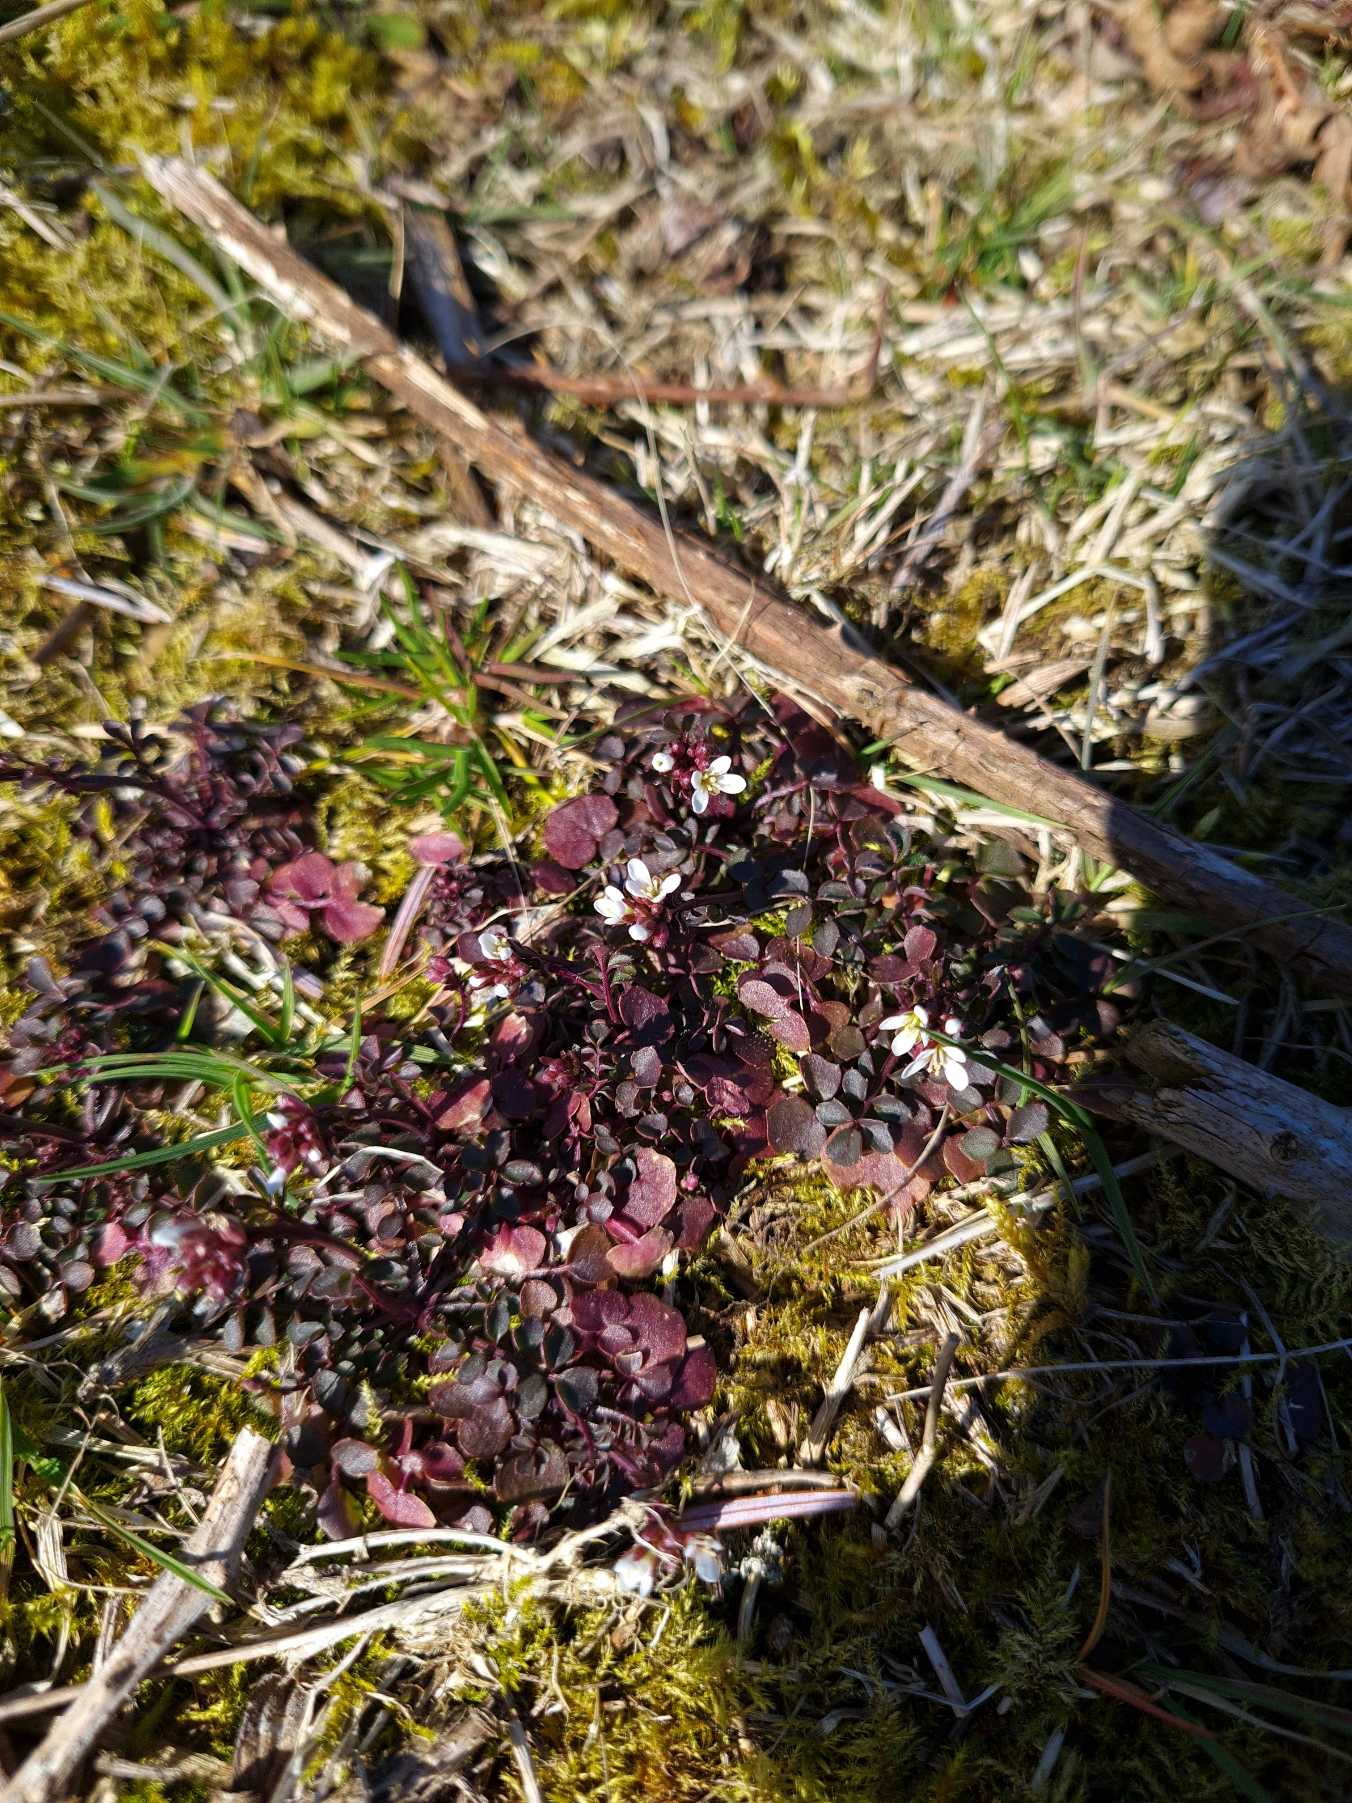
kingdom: Plantae
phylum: Tracheophyta
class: Magnoliopsida
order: Brassicales
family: Brassicaceae
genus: Cardamine
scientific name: Cardamine hirsuta
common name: Roset-springklap
